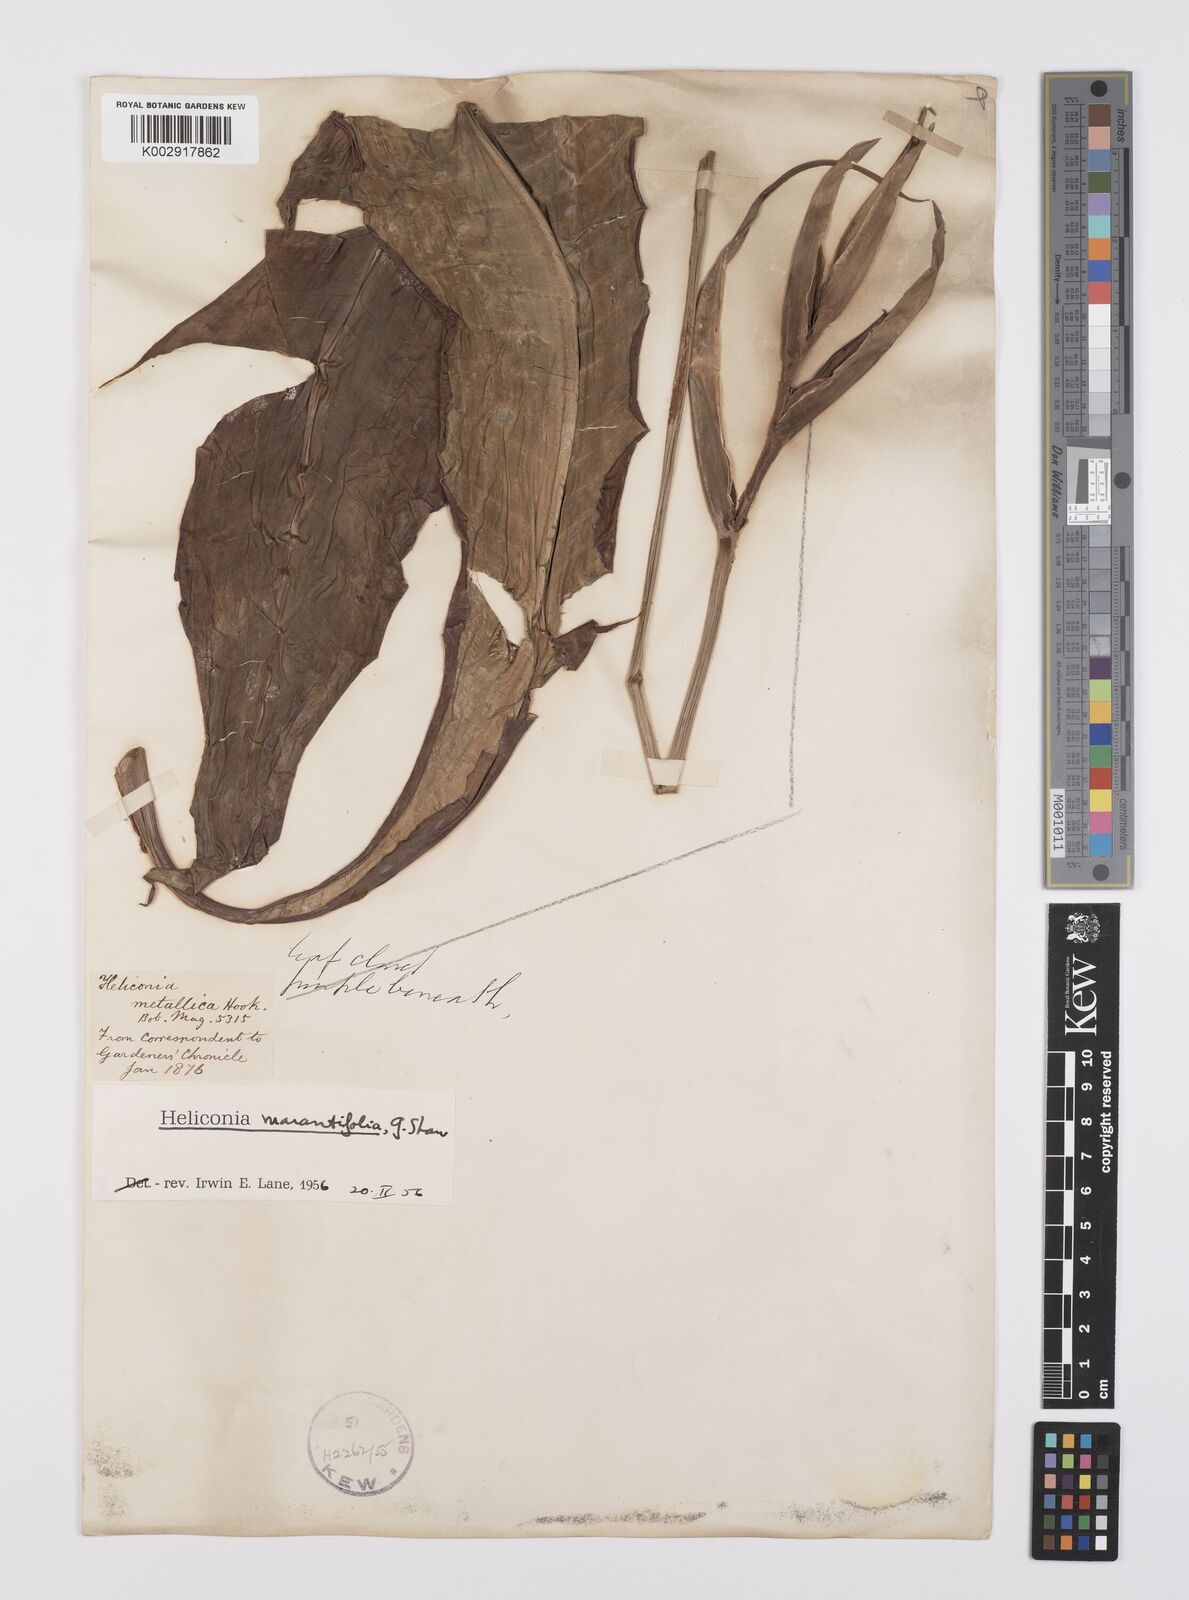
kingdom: Plantae
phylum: Tracheophyta
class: Liliopsida
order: Zingiberales
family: Heliconiaceae
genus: Heliconia
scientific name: Heliconia psittacorum
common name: Parrot's-flower
